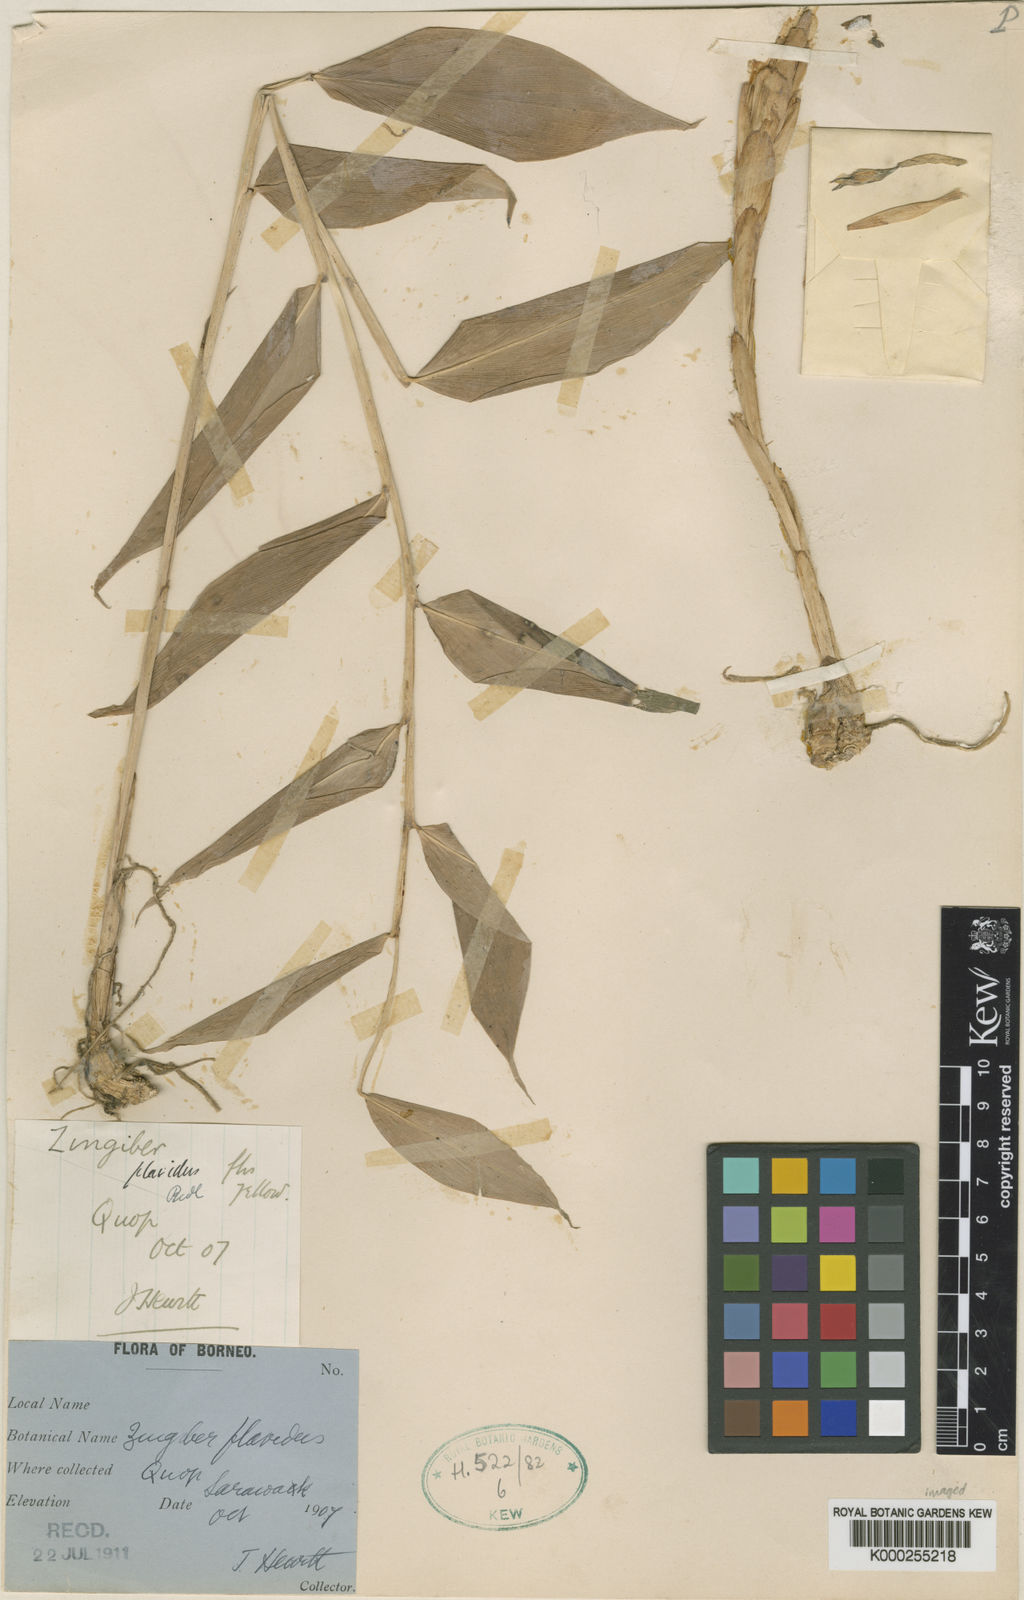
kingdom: Plantae
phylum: Tracheophyta
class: Liliopsida
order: Zingiberales
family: Zingiberaceae
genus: Zingiber
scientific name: Zingiber leptostachyum
